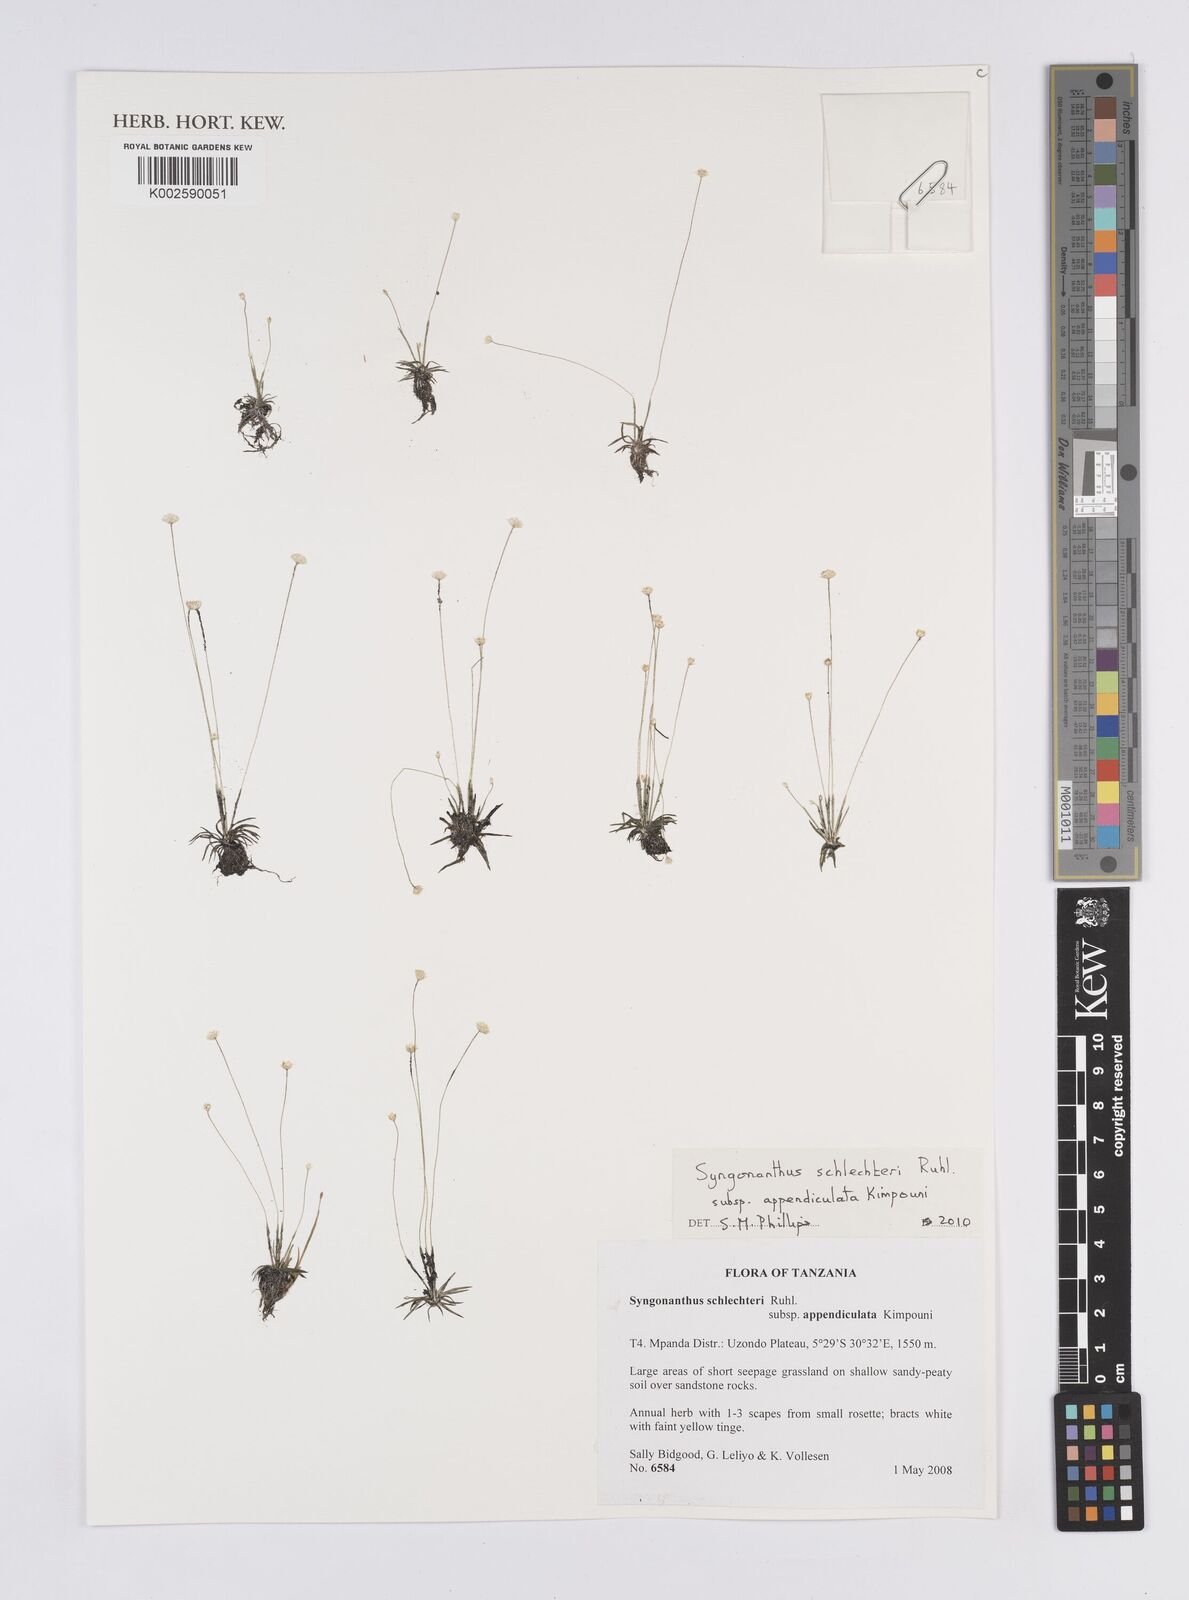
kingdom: Plantae
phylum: Tracheophyta
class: Liliopsida
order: Poales
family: Eriocaulaceae
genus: Syngonanthus
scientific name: Syngonanthus schlechteri
